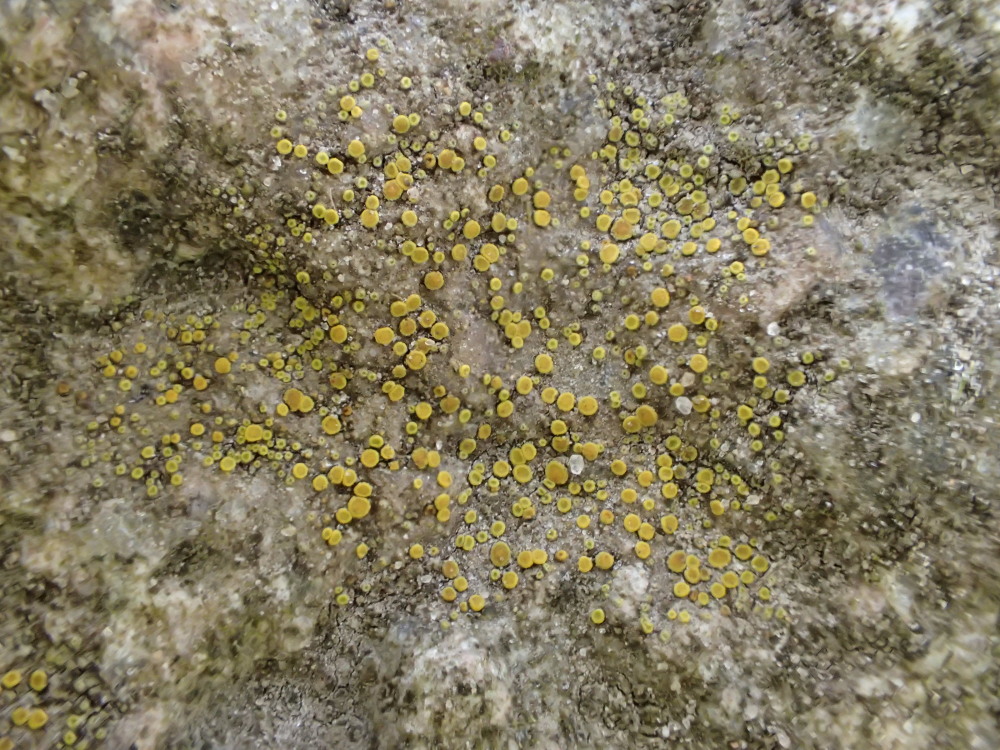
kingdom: Fungi
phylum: Ascomycota
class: Candelariomycetes
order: Candelariales
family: Candelariaceae
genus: Candelariella
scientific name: Candelariella aurella
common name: liden æggeblommelav
